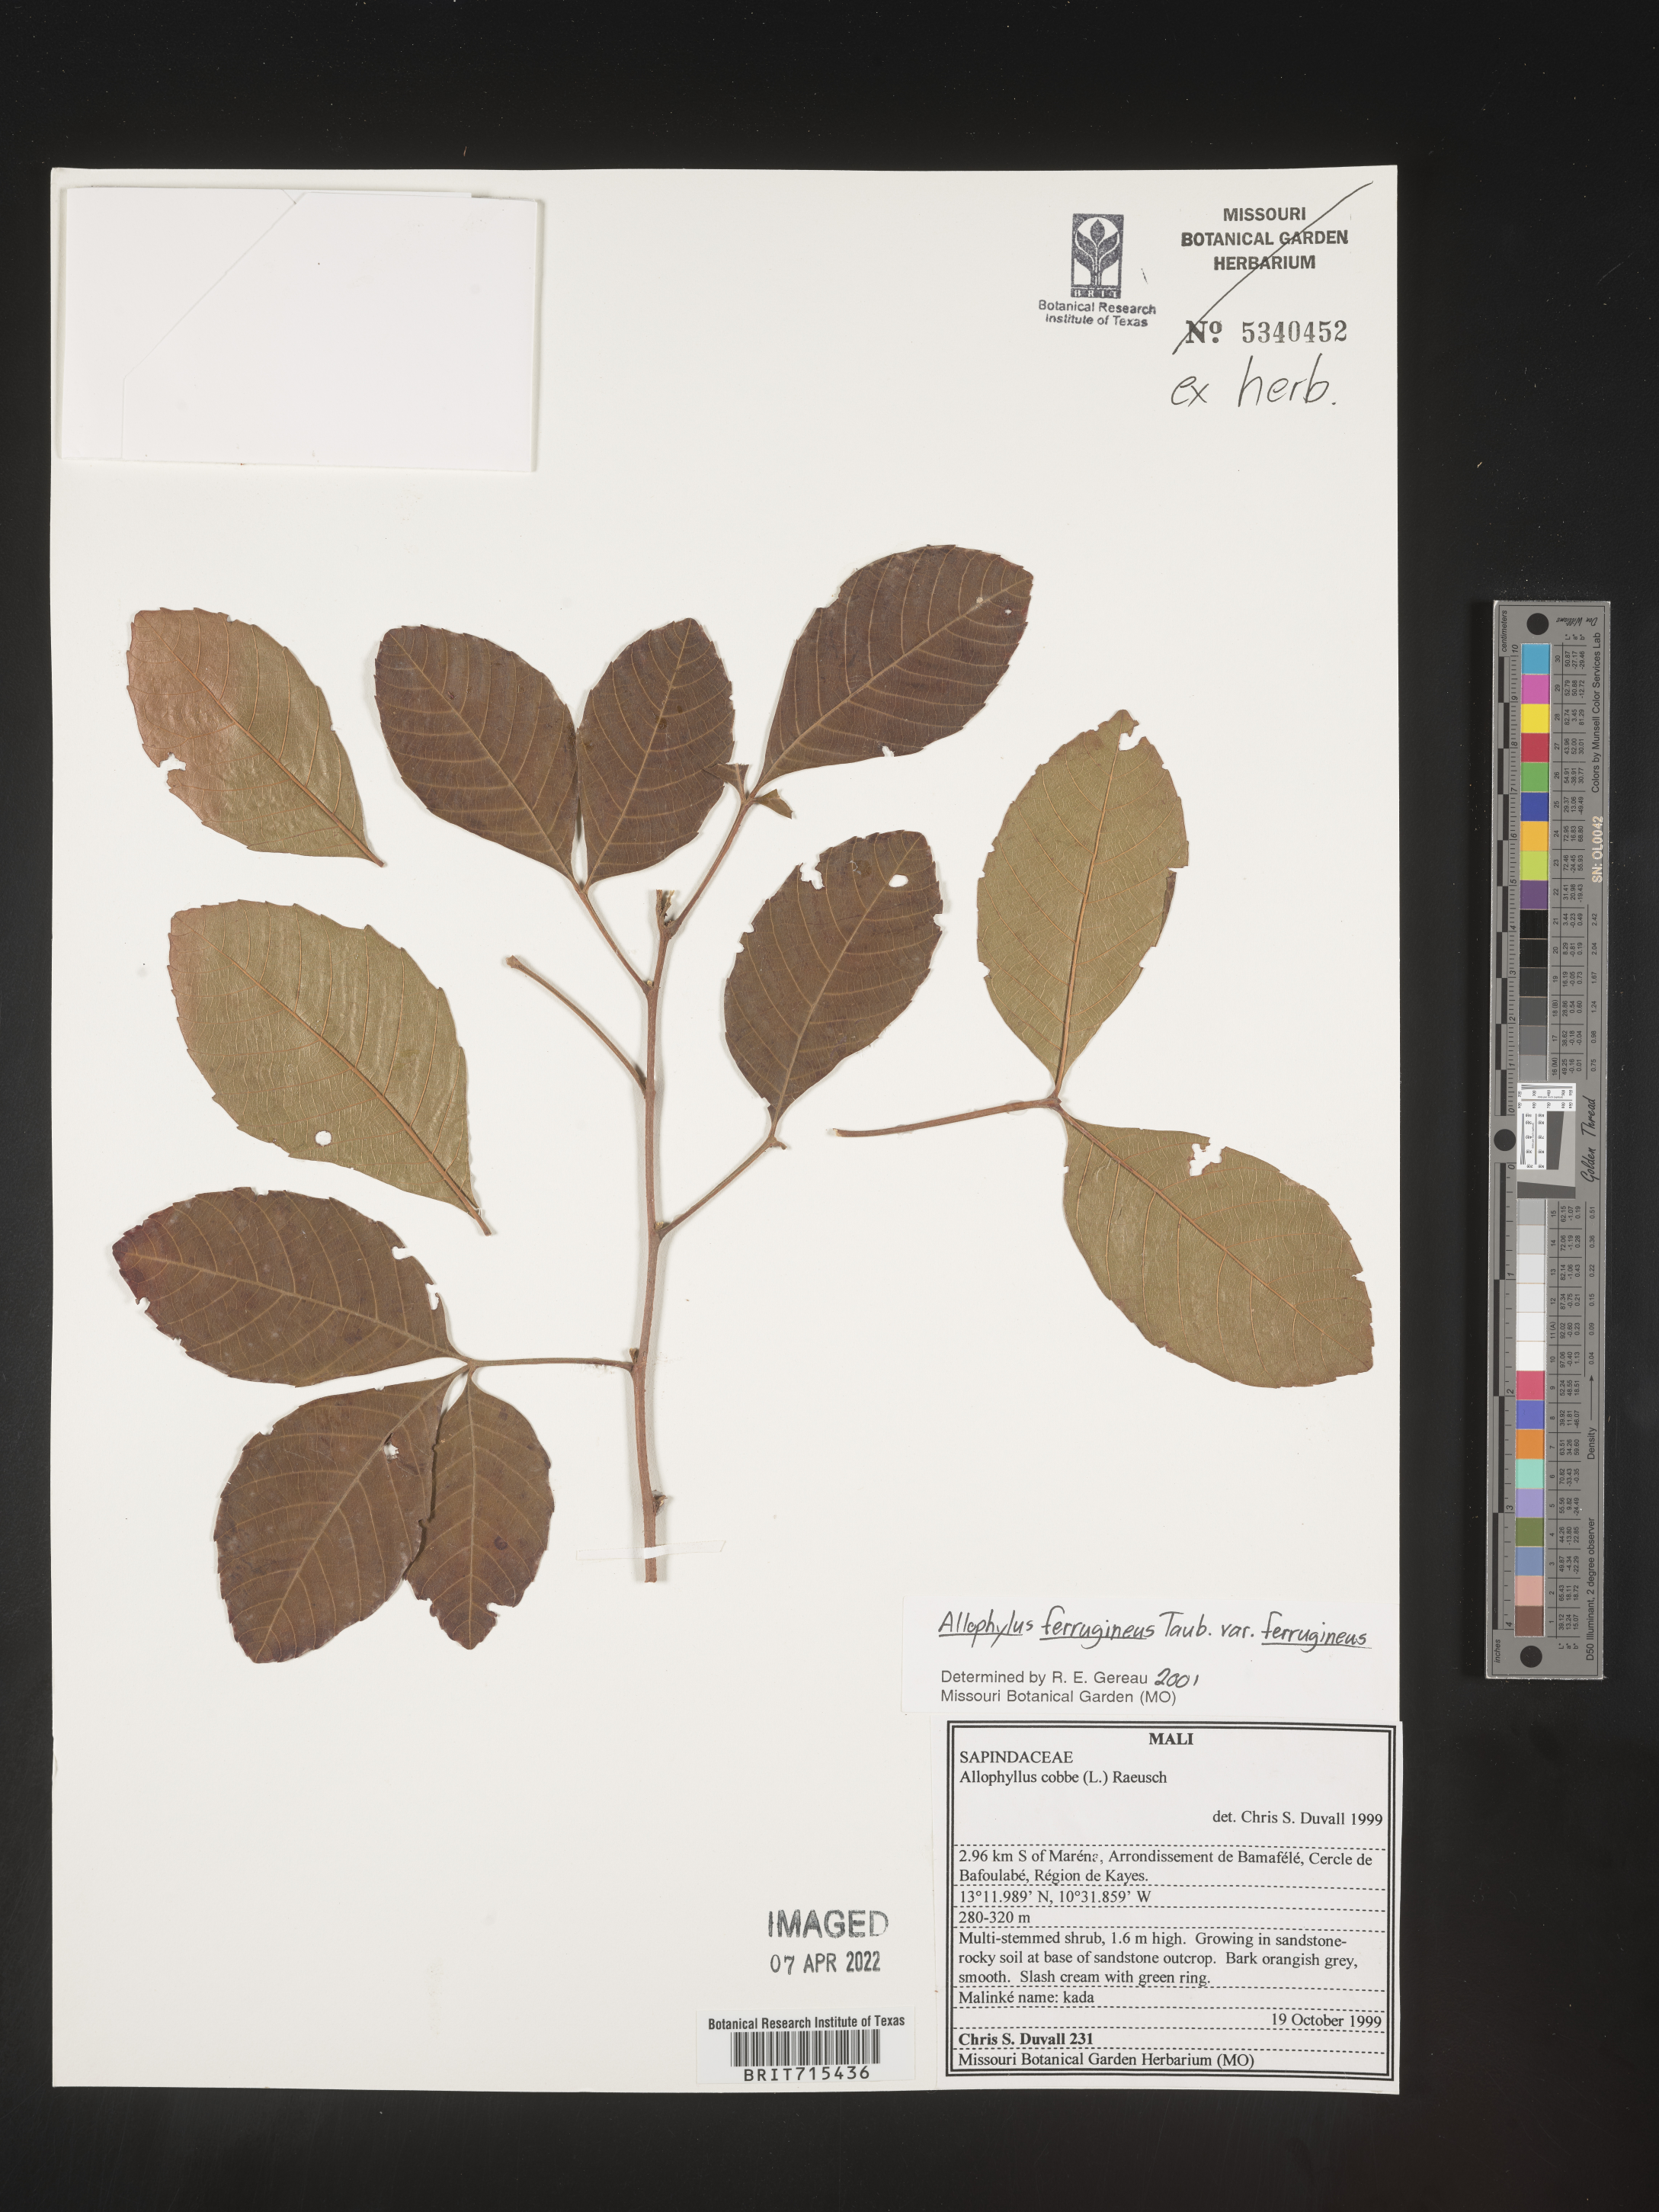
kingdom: Plantae
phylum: Tracheophyta
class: Magnoliopsida
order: Sapindales
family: Sapindaceae
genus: Allophylus
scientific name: Allophylus ferrugineus
